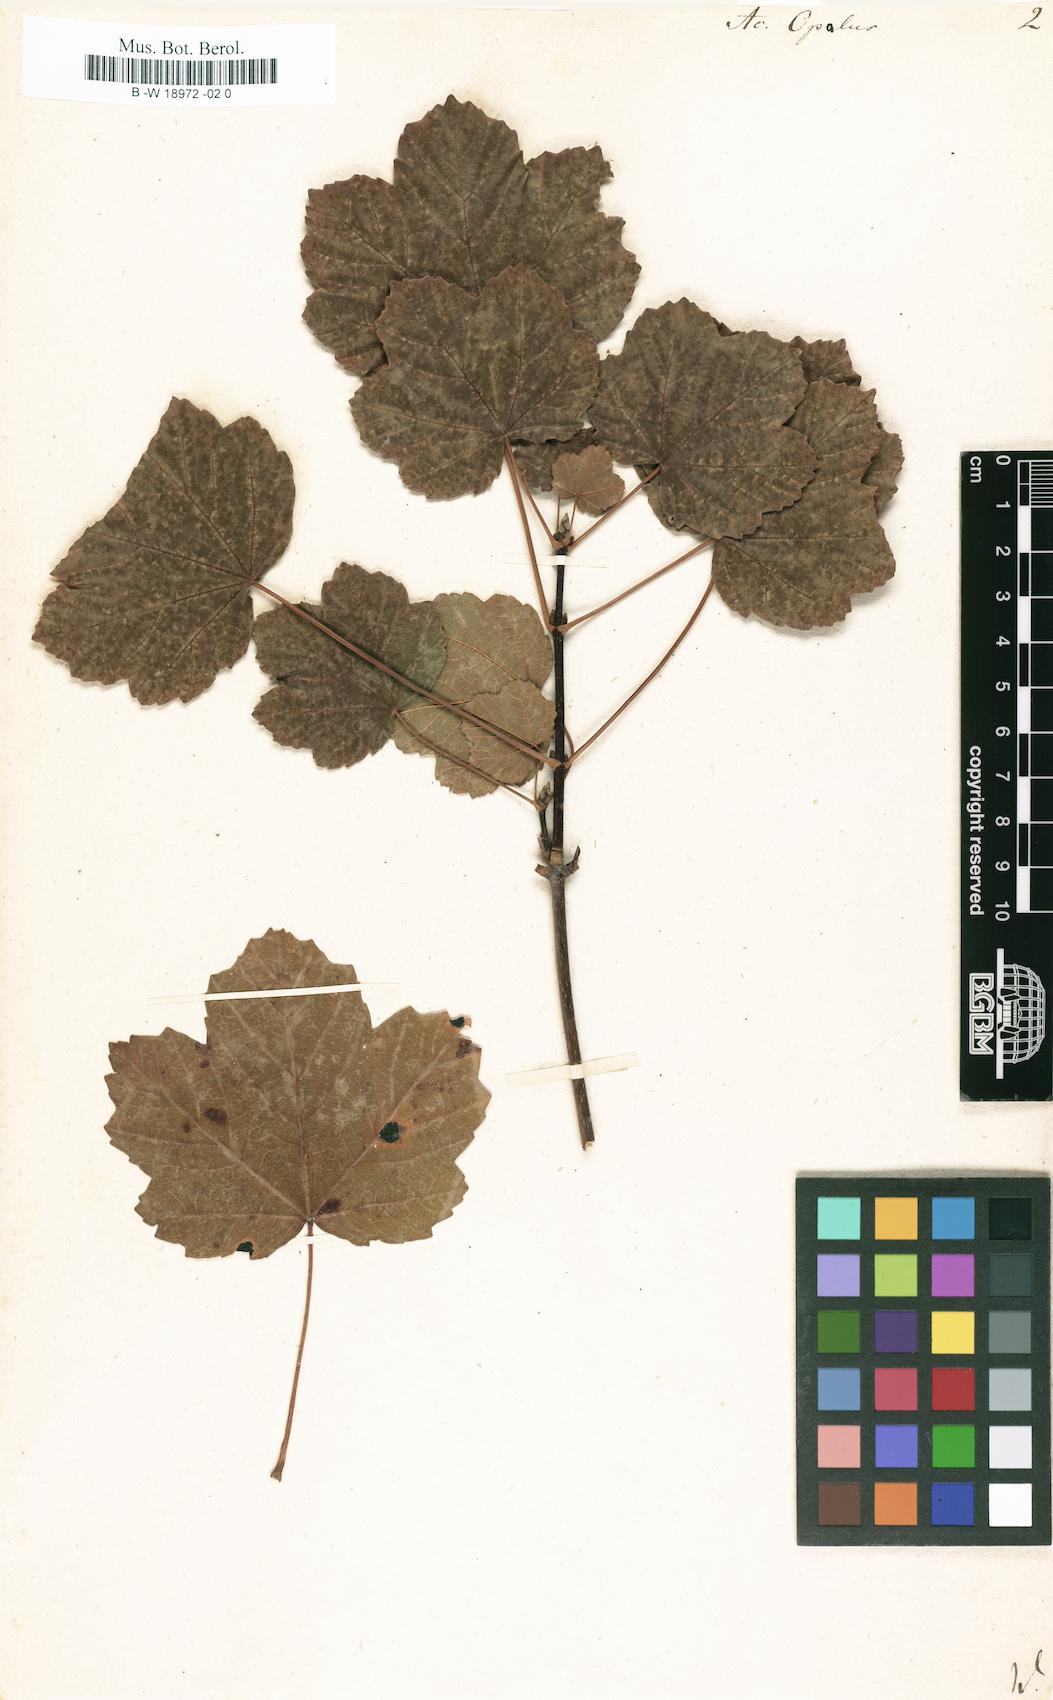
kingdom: Plantae
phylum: Tracheophyta
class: Magnoliopsida
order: Sapindales
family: Sapindaceae
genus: Acer
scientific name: Acer opalus
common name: Italian maple
